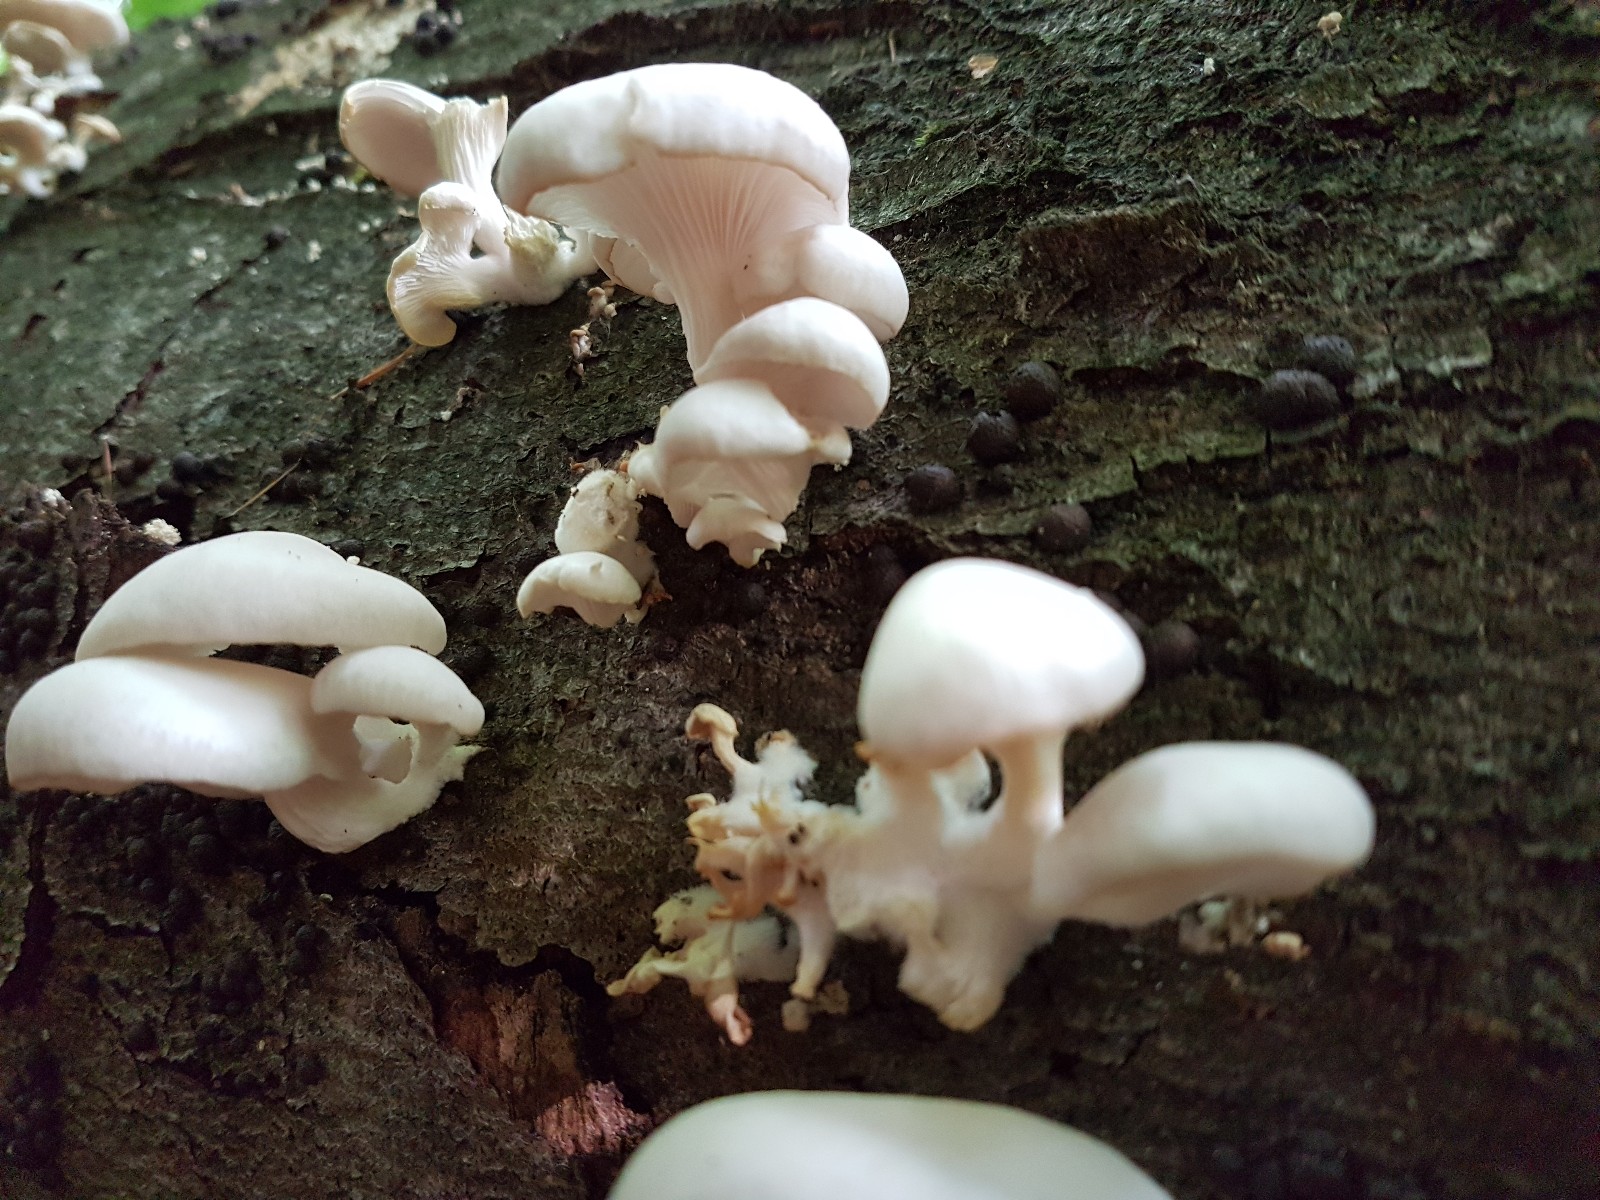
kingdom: Fungi
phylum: Basidiomycota
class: Agaricomycetes
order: Agaricales
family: Pleurotaceae
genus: Pleurotus
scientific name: Pleurotus ostreatus
